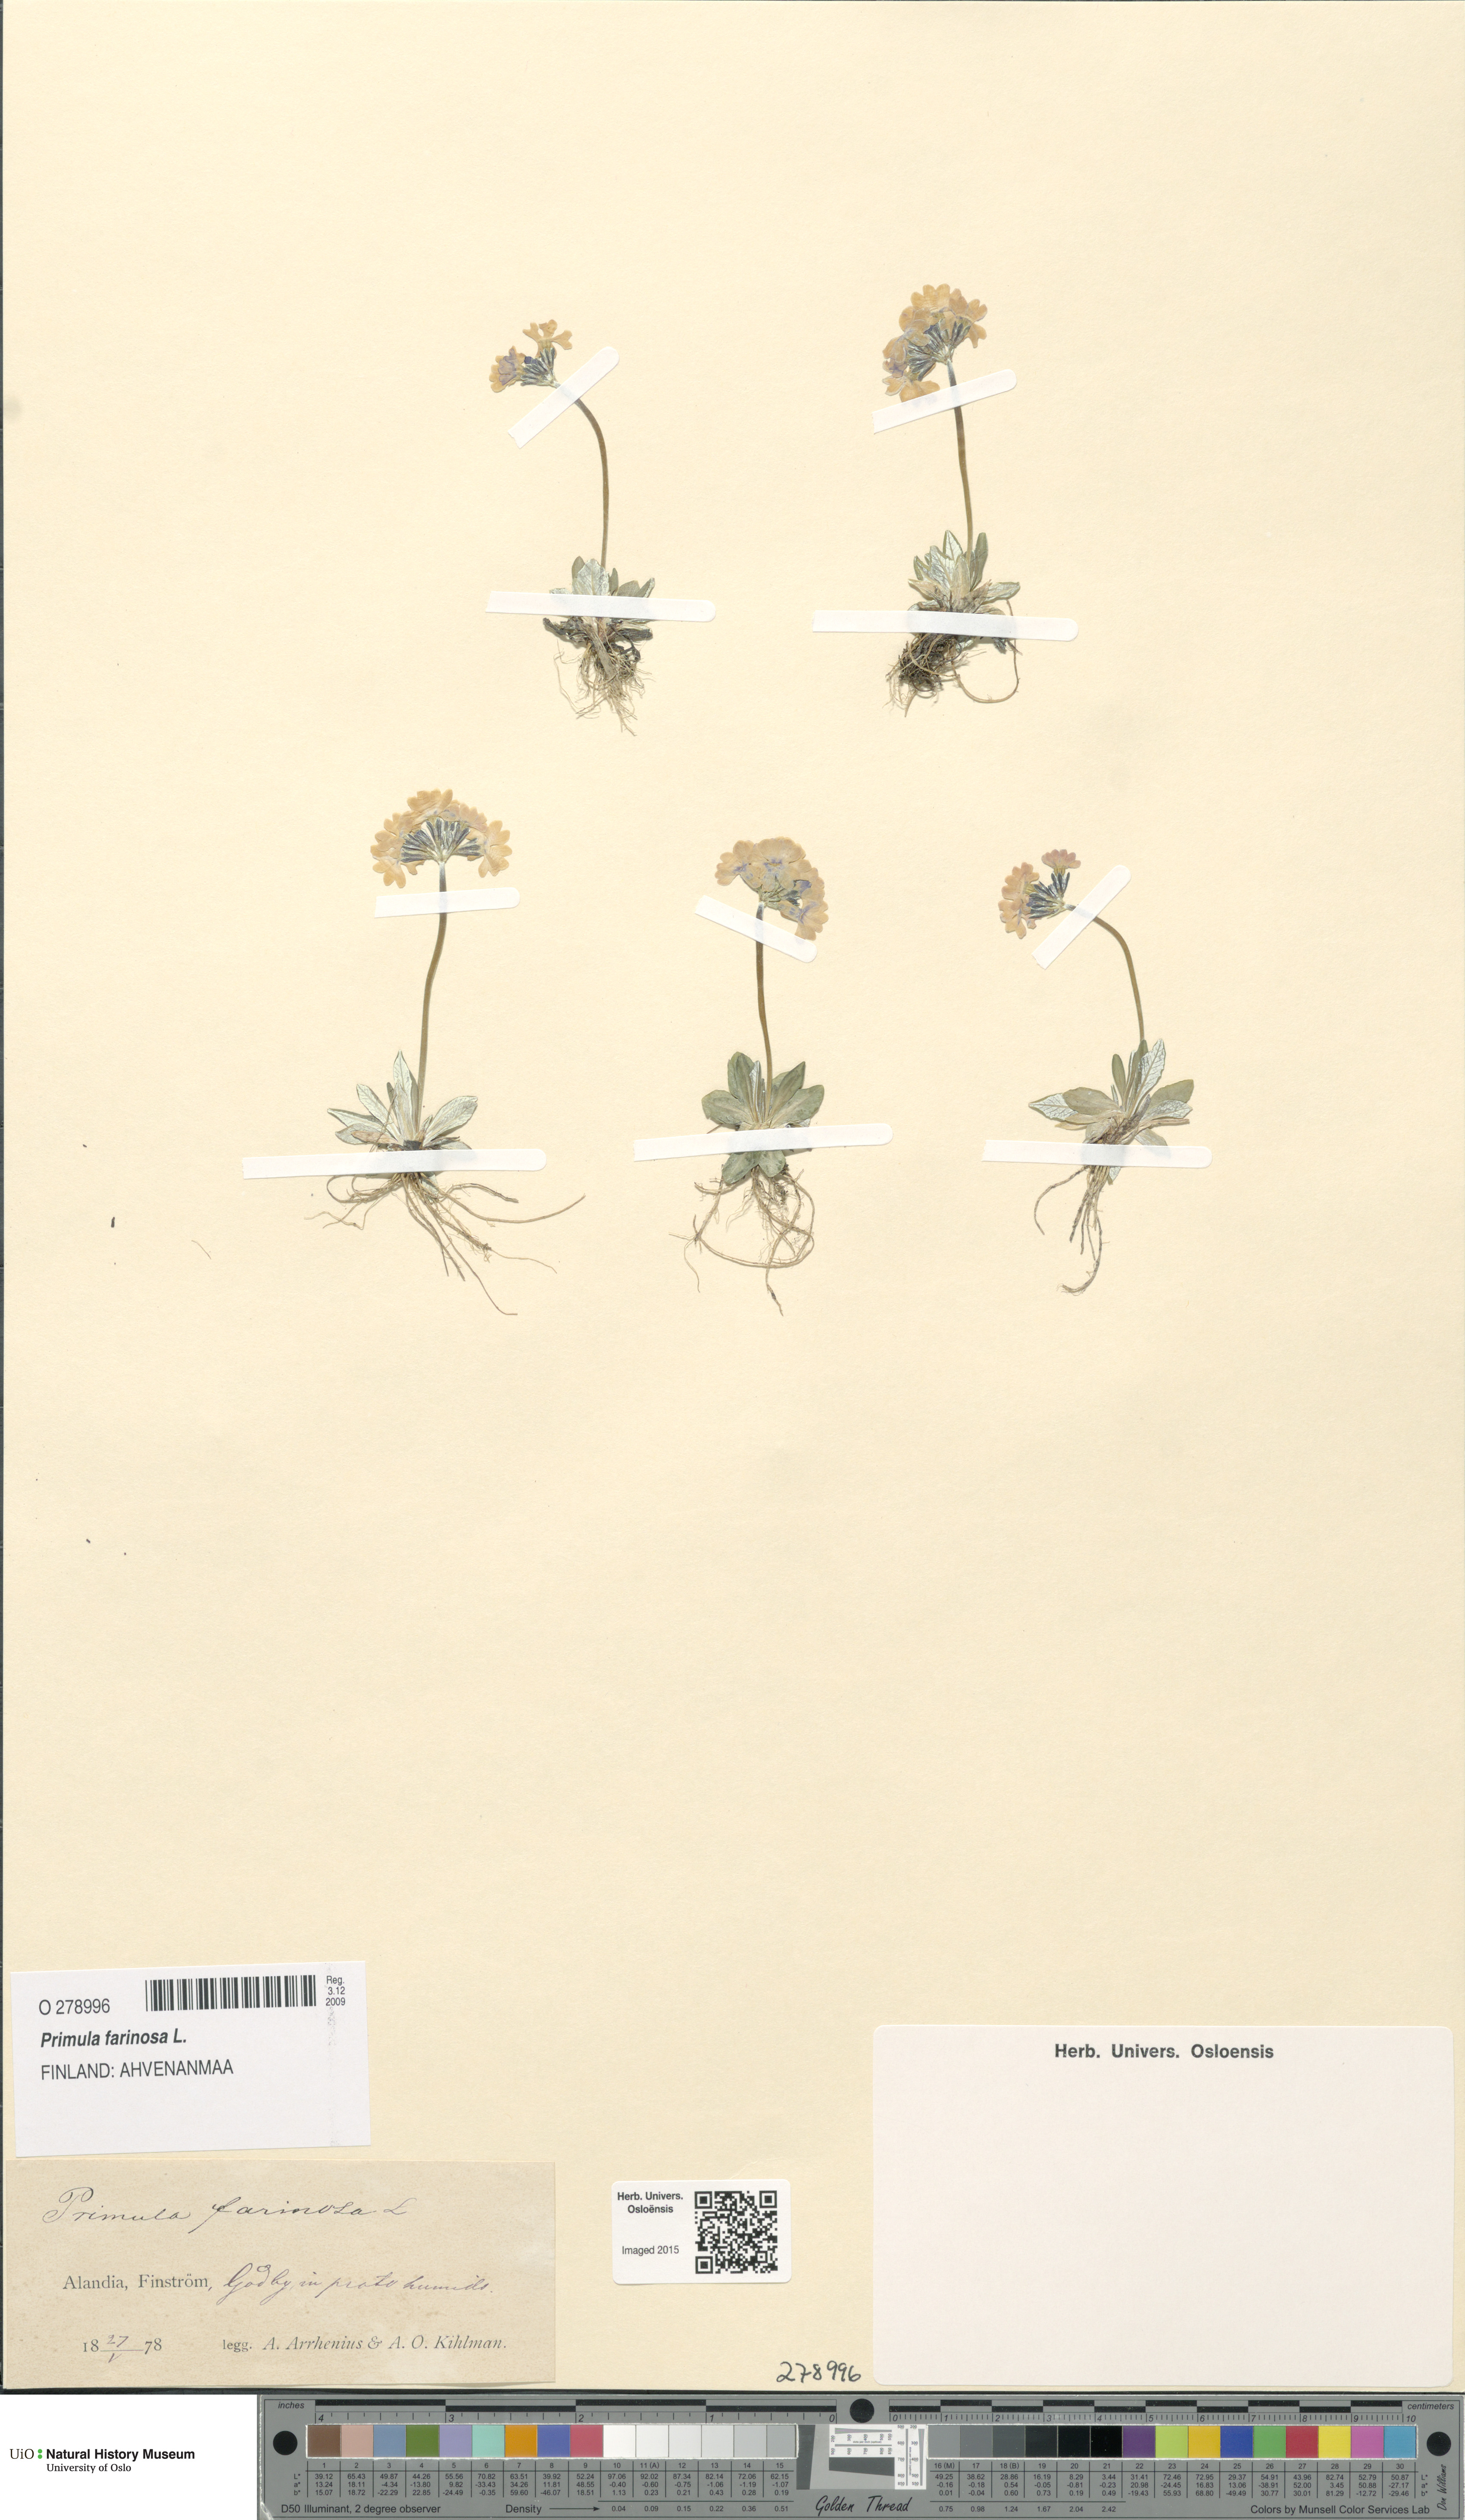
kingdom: Plantae
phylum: Tracheophyta
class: Magnoliopsida
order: Ericales
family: Primulaceae
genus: Primula
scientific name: Primula farinosa
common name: Bird's-eye primrose
